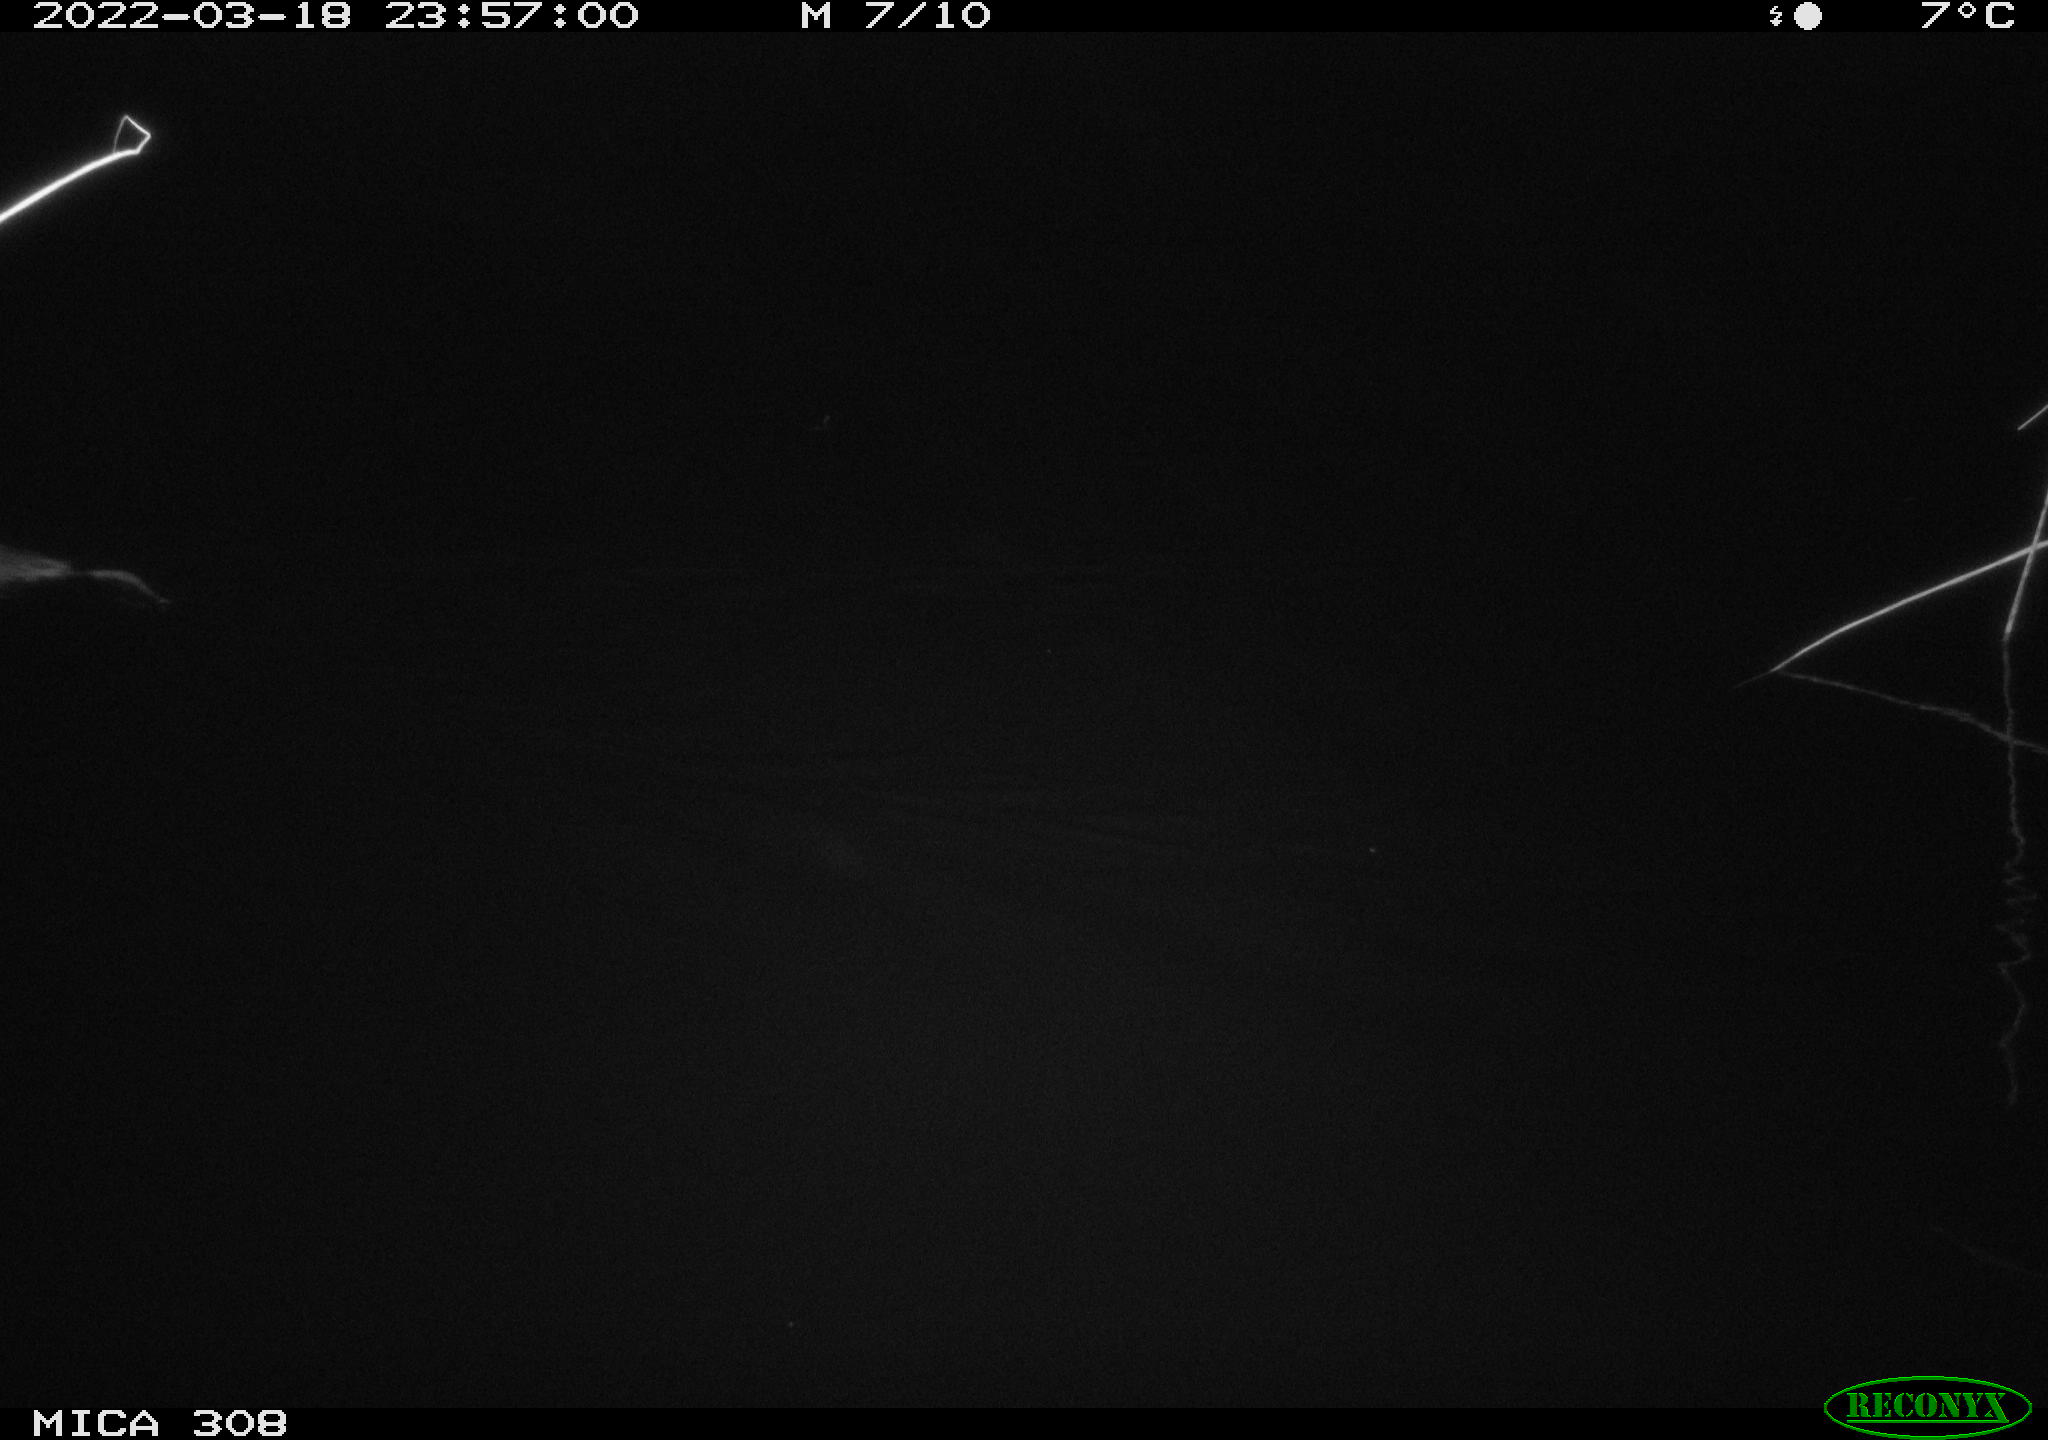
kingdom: Animalia
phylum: Chordata
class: Mammalia
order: Rodentia
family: Cricetidae
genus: Ondatra
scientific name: Ondatra zibethicus
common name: Muskrat
